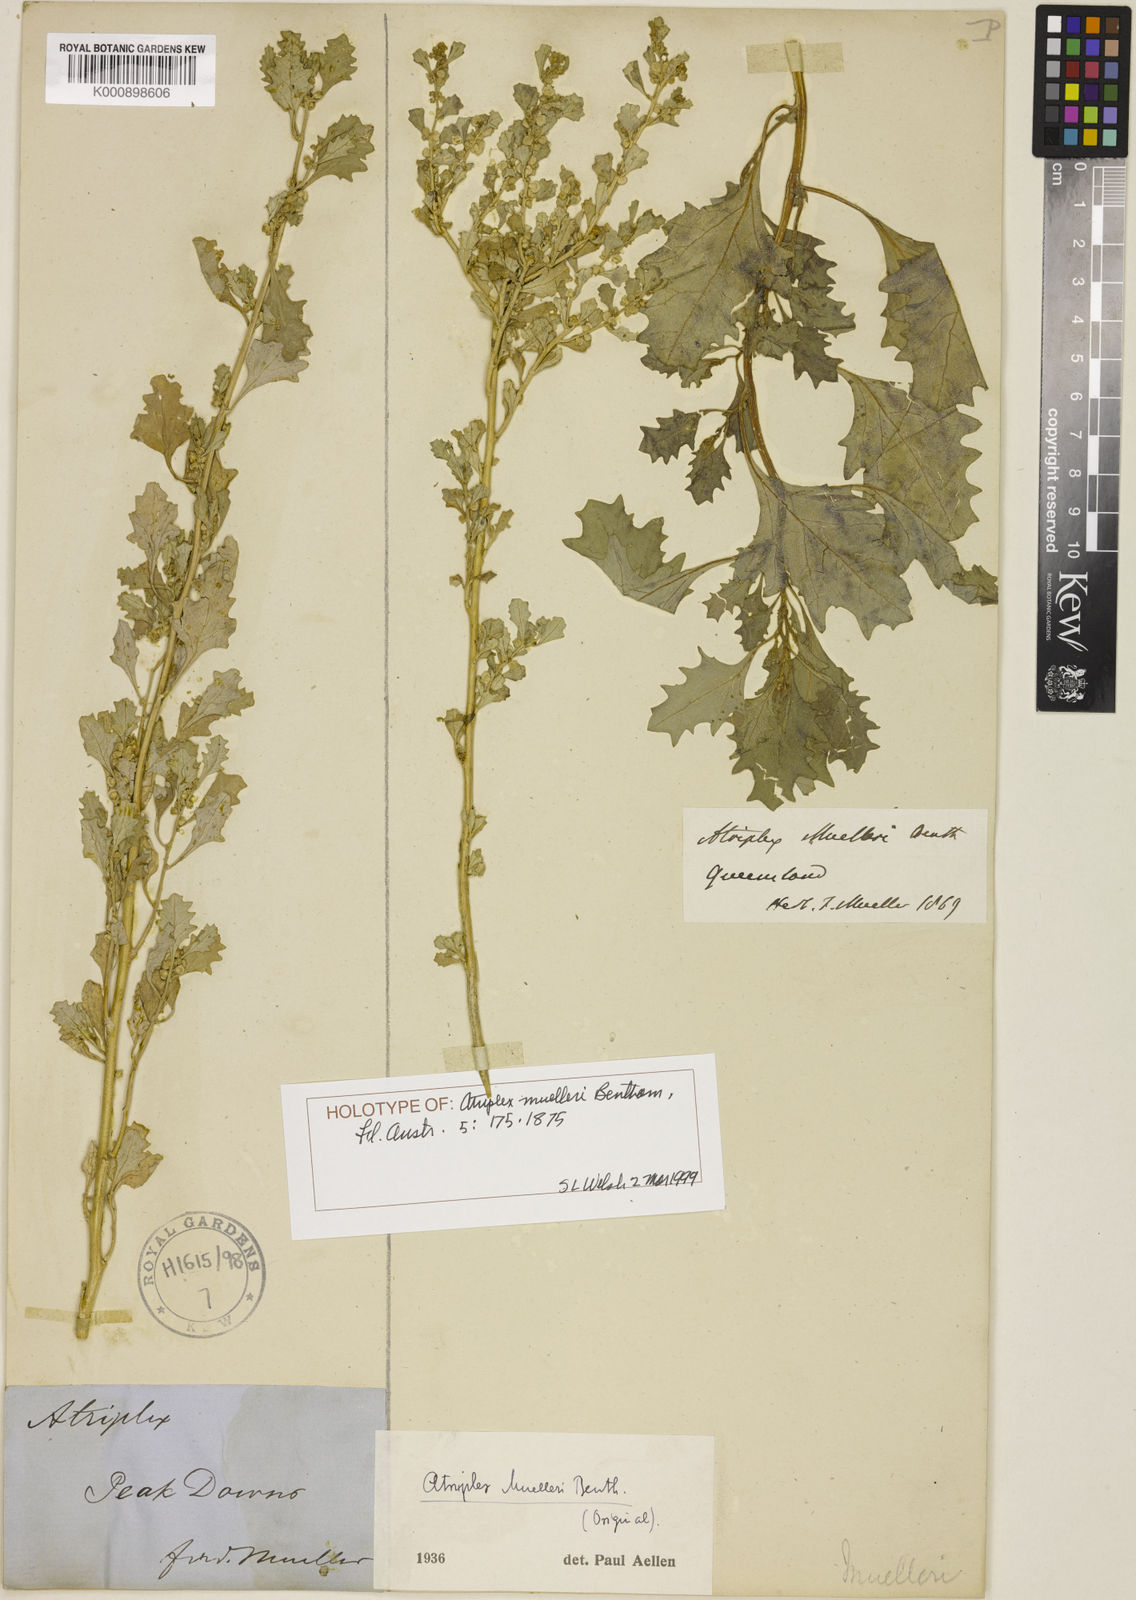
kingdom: Plantae
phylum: Tracheophyta
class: Magnoliopsida
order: Caryophyllales
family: Amaranthaceae
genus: Atriplex
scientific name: Atriplex muelleri
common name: Mueller's saltbush
